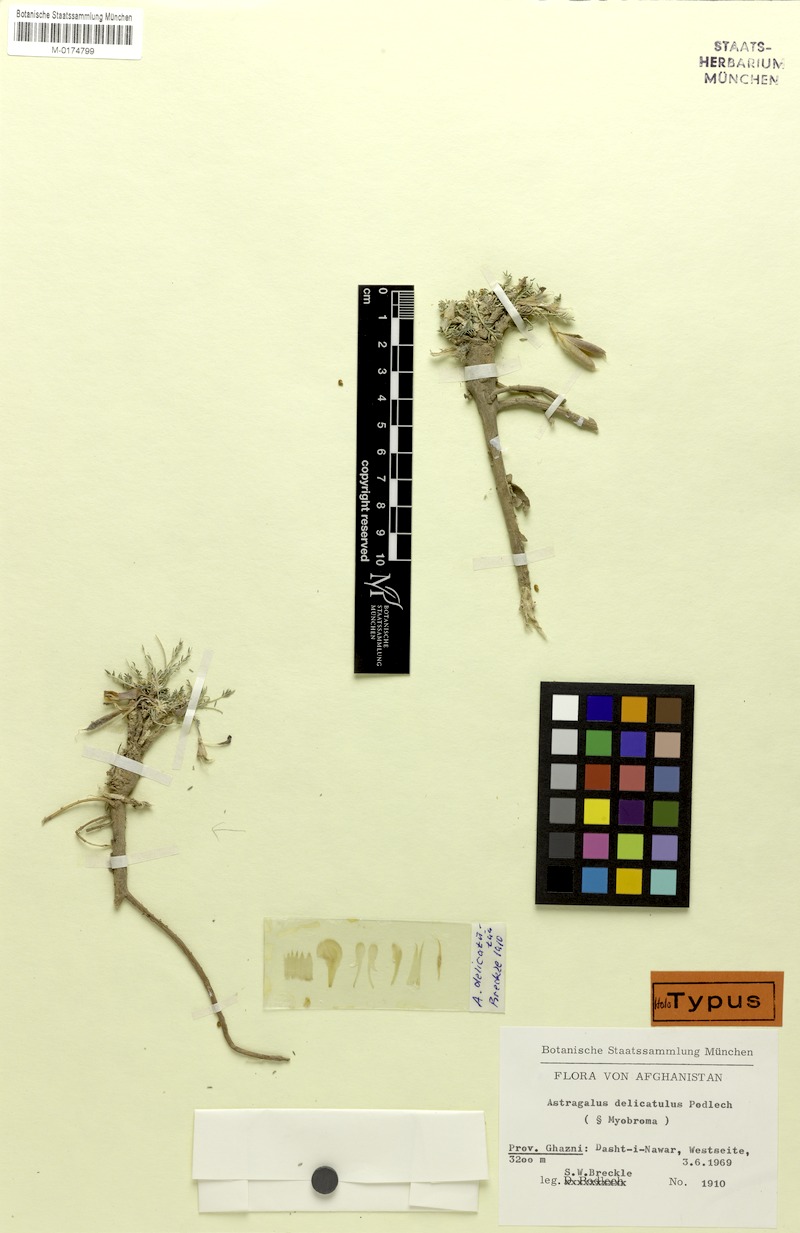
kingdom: Plantae
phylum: Tracheophyta
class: Magnoliopsida
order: Fabales
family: Fabaceae
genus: Astragalus
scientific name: Astragalus delicatulus
